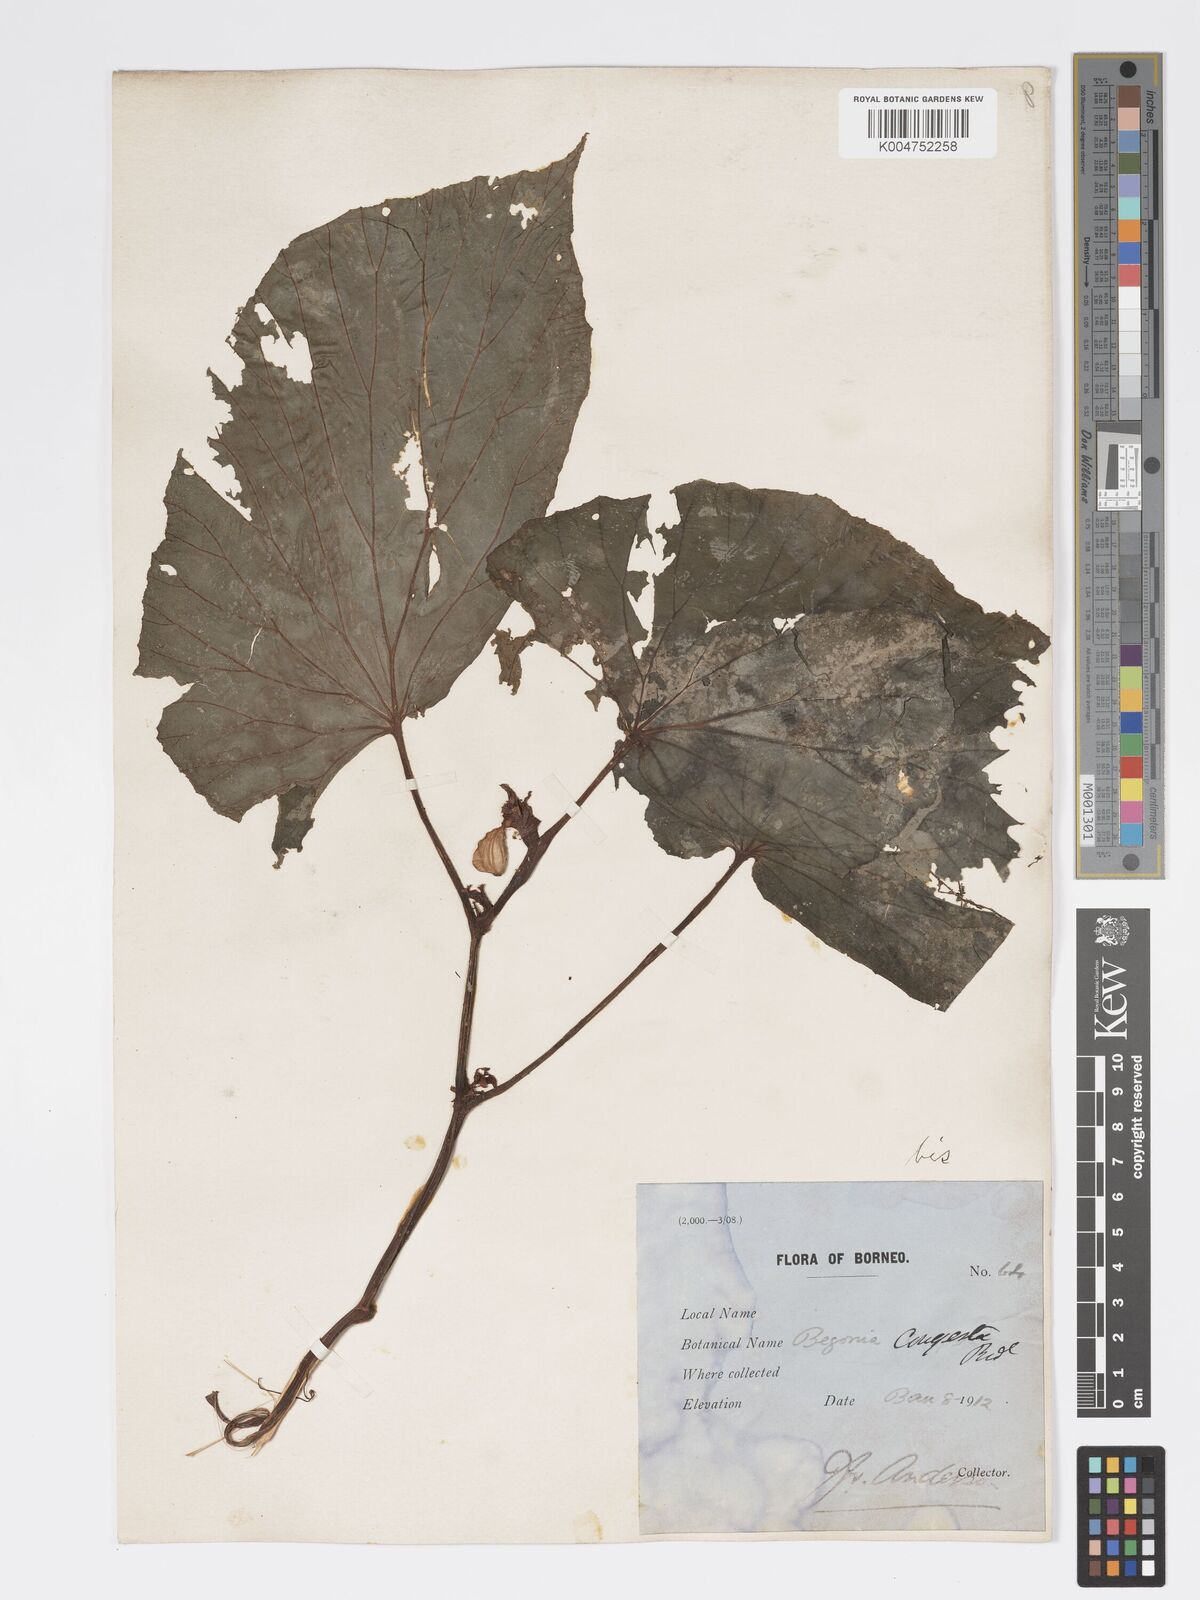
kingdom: Plantae
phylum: Tracheophyta
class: Magnoliopsida
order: Cucurbitales
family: Begoniaceae
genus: Begonia
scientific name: Begonia congesta
